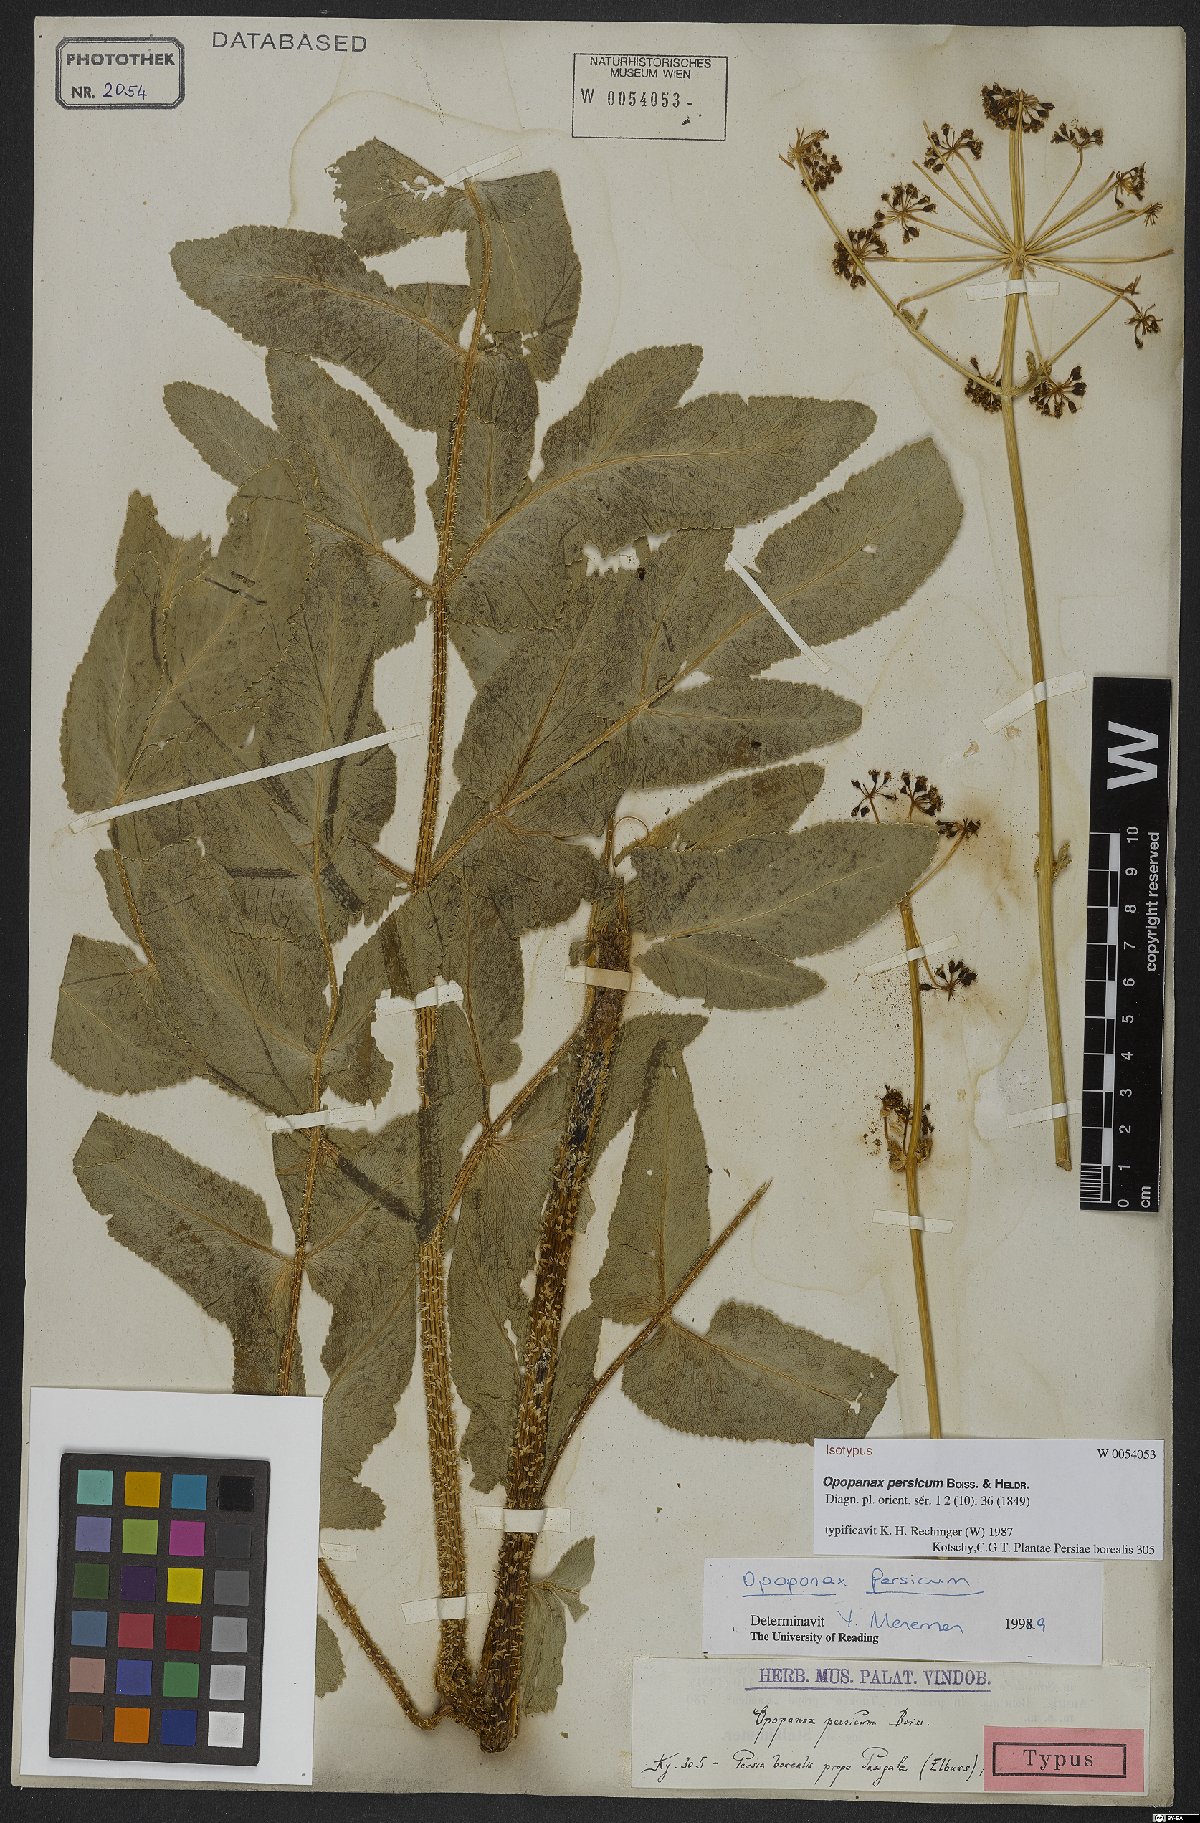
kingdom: Plantae
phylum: Tracheophyta
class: Magnoliopsida
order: Apiales
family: Apiaceae
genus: Opopanax
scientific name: Opopanax persicus
